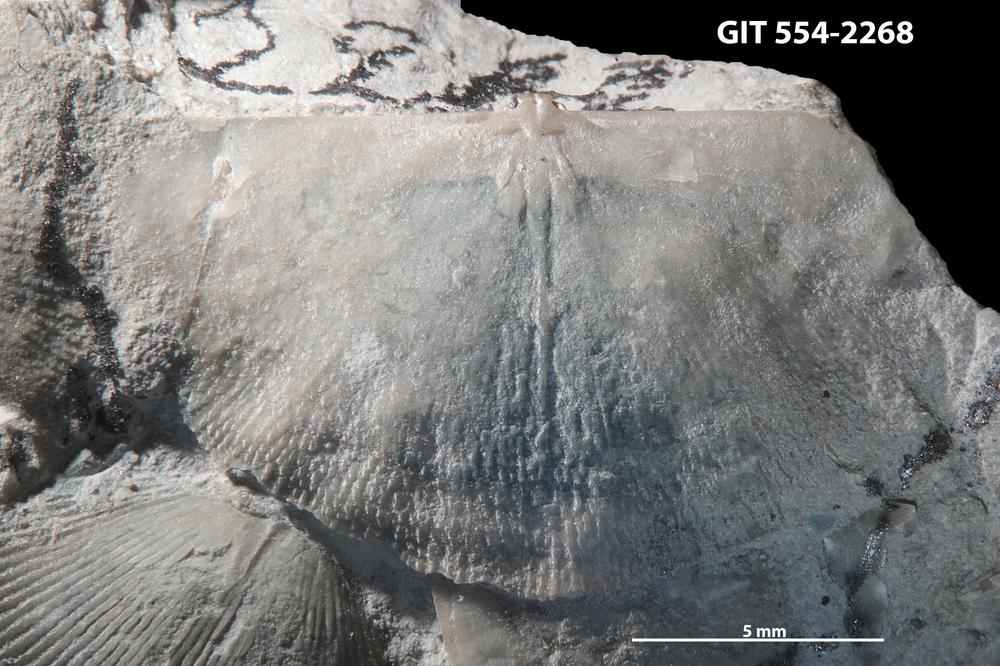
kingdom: Animalia
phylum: Brachiopoda
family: Strophochonetidae
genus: Protochonetes
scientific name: Protochonetes Orthis striatella
